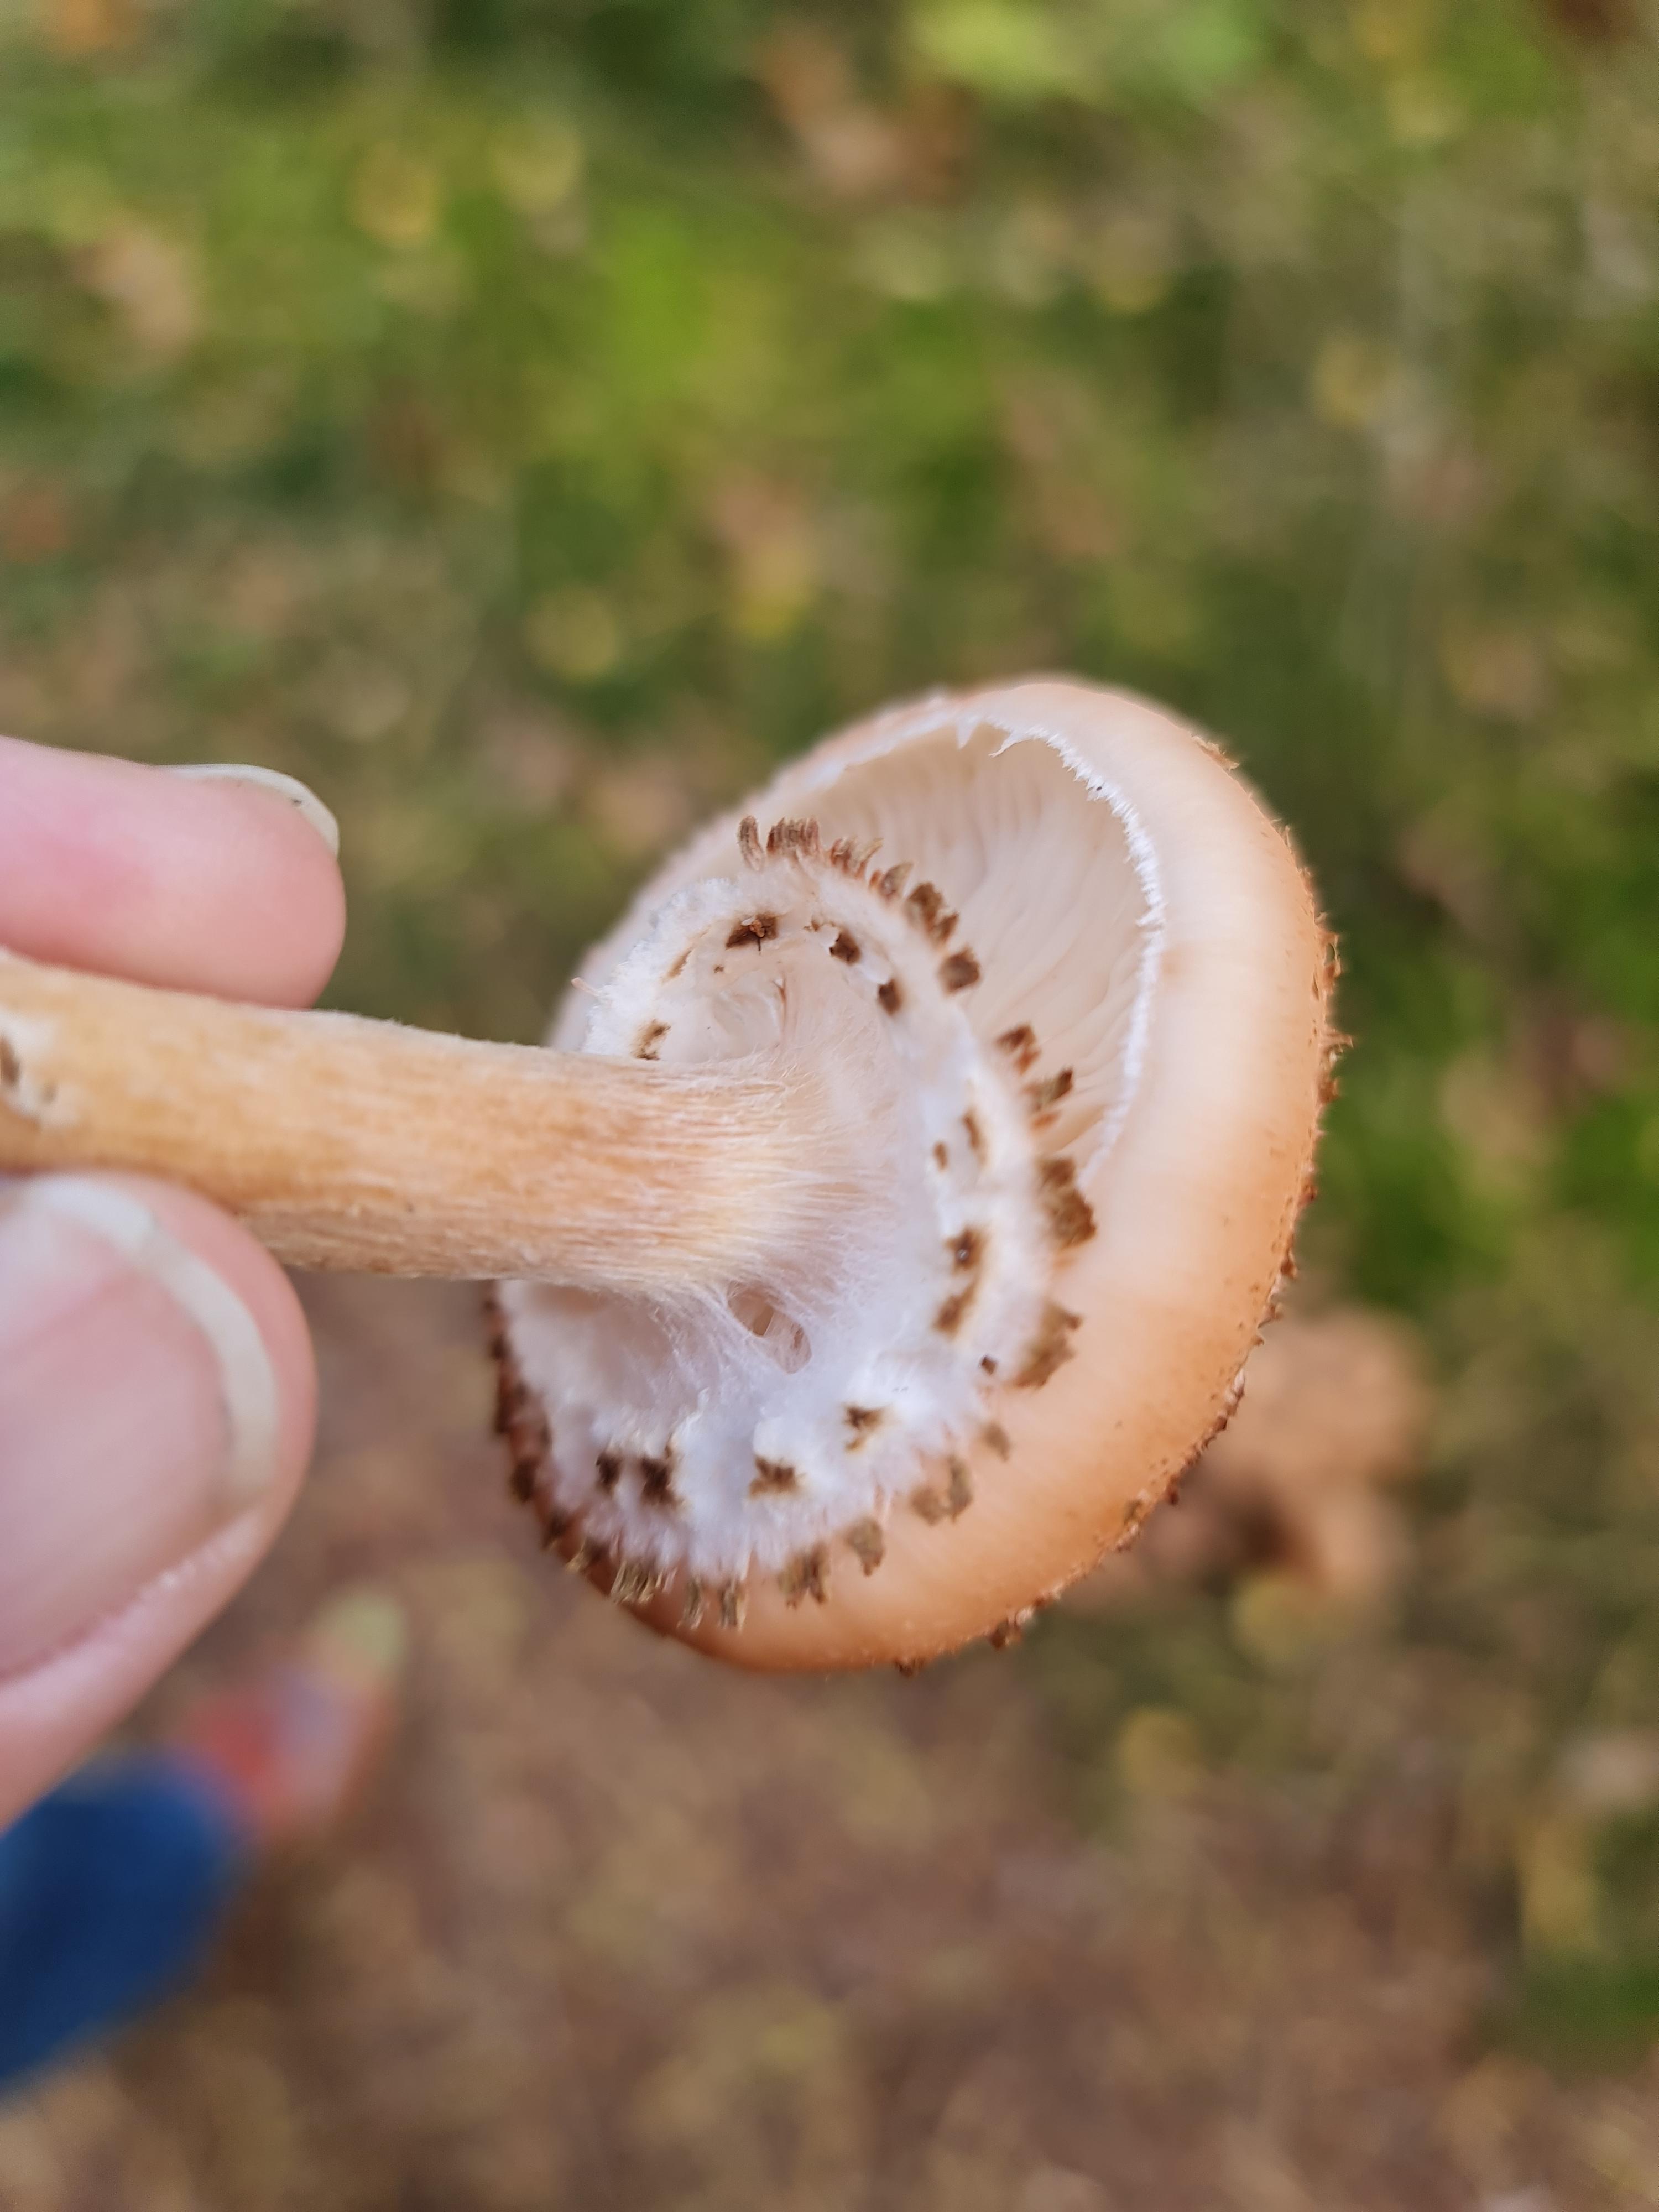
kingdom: Fungi
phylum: Basidiomycota
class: Agaricomycetes
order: Agaricales
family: Physalacriaceae
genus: Armillaria
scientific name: Armillaria ostoyae
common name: mørk honningsvamp
